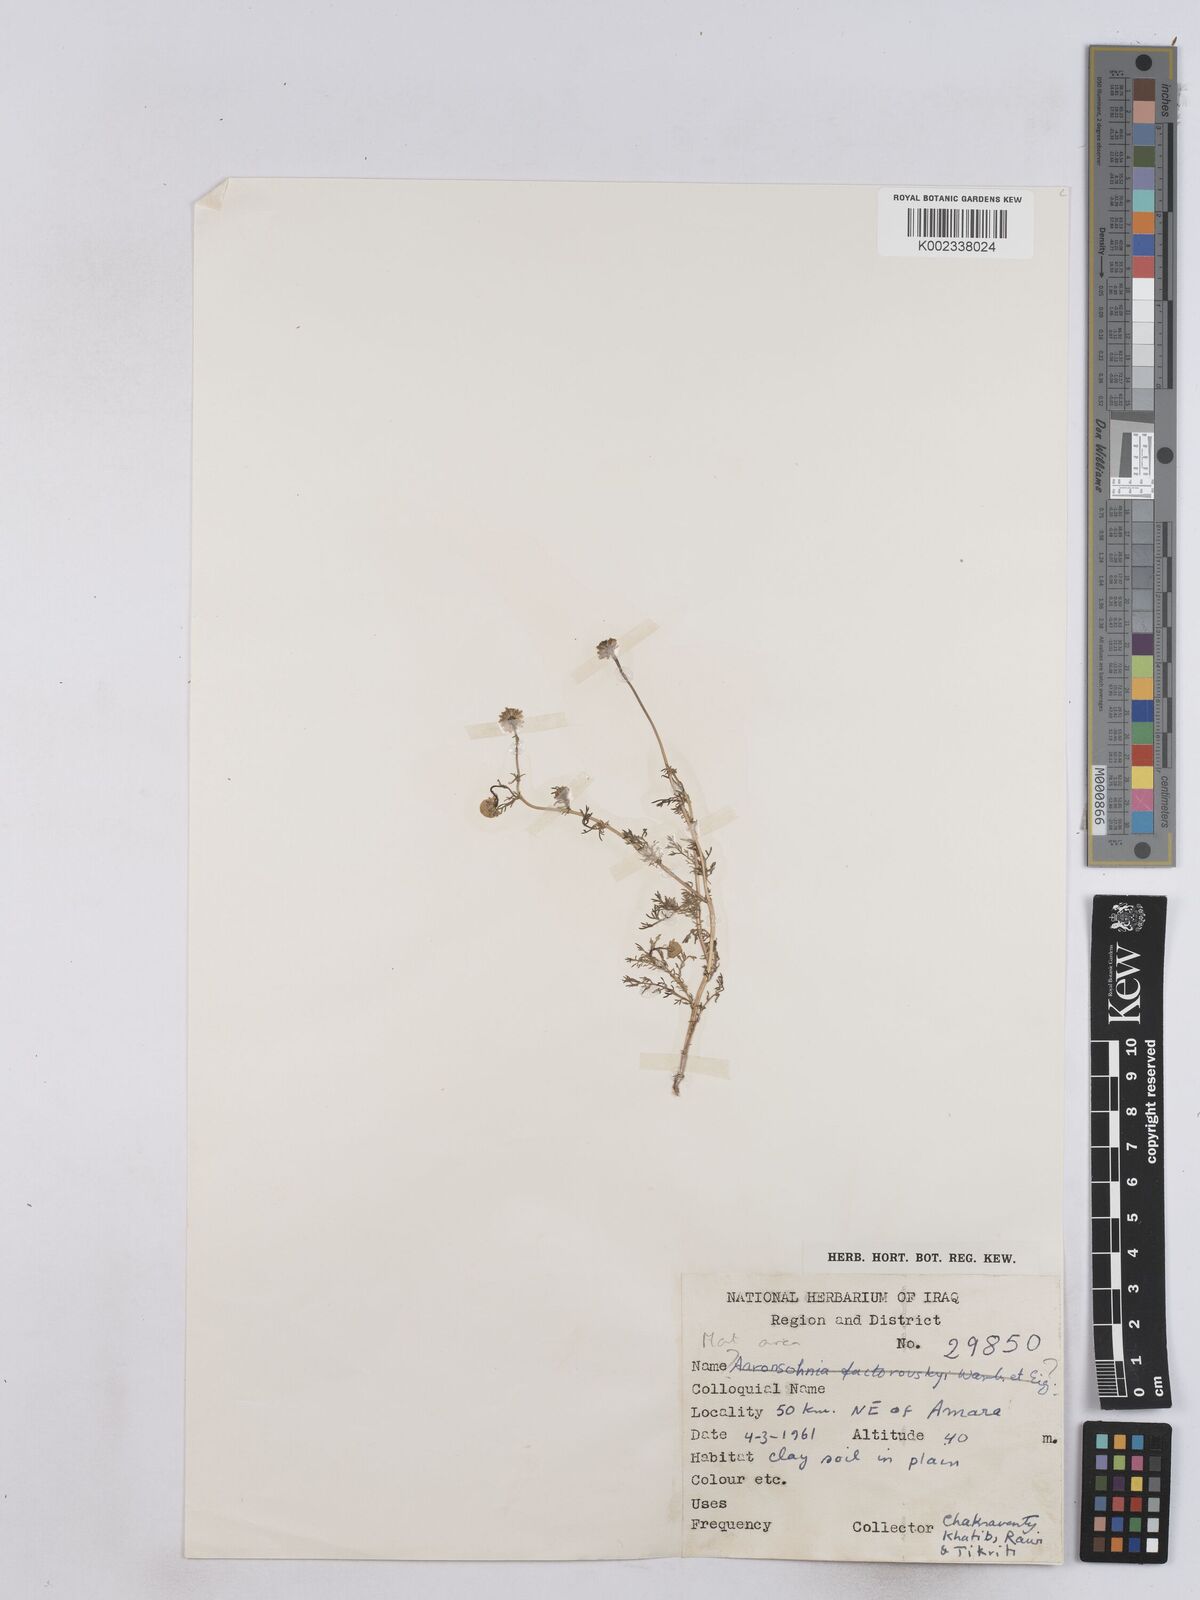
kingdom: Plantae
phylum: Tracheophyta
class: Magnoliopsida
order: Asterales
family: Asteraceae
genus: Matricaria
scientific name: Matricaria aurea
